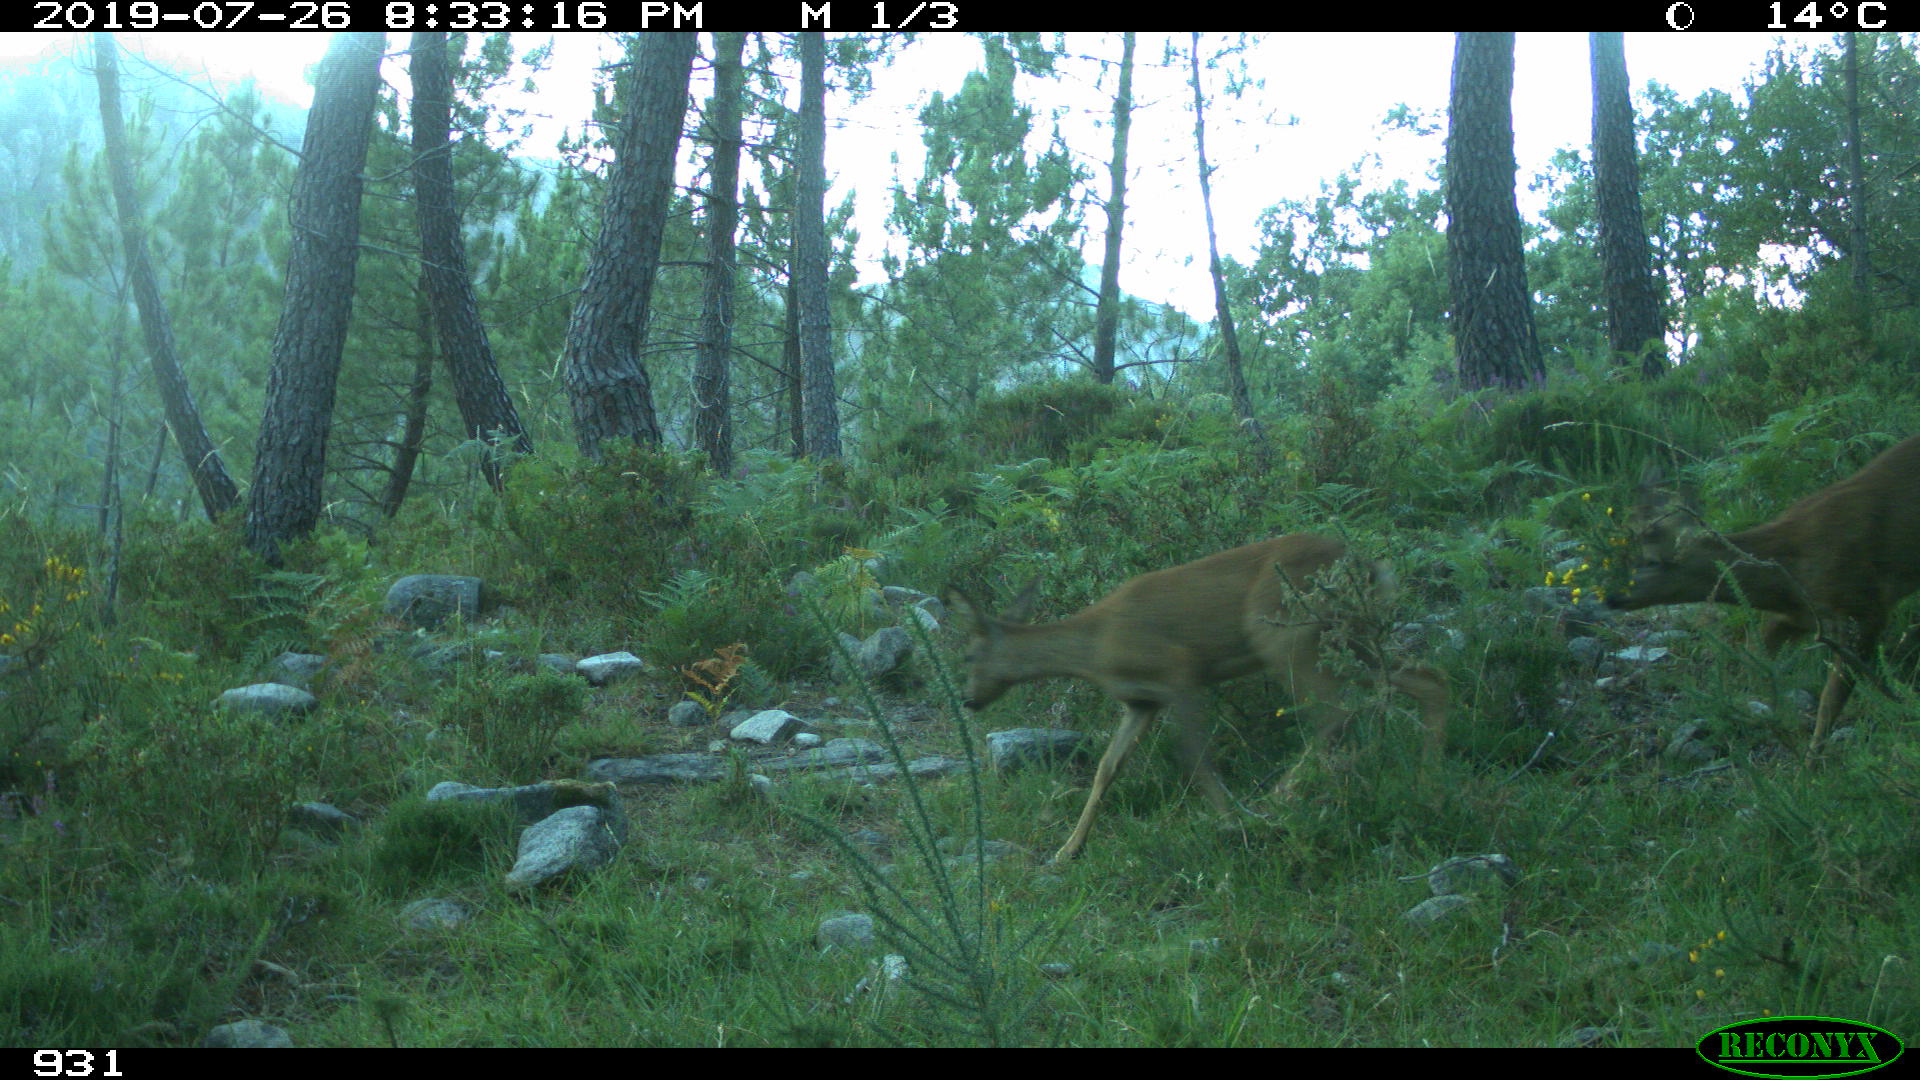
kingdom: Animalia
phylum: Chordata
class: Mammalia
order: Artiodactyla
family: Cervidae
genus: Capreolus
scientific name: Capreolus capreolus
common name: Western roe deer
